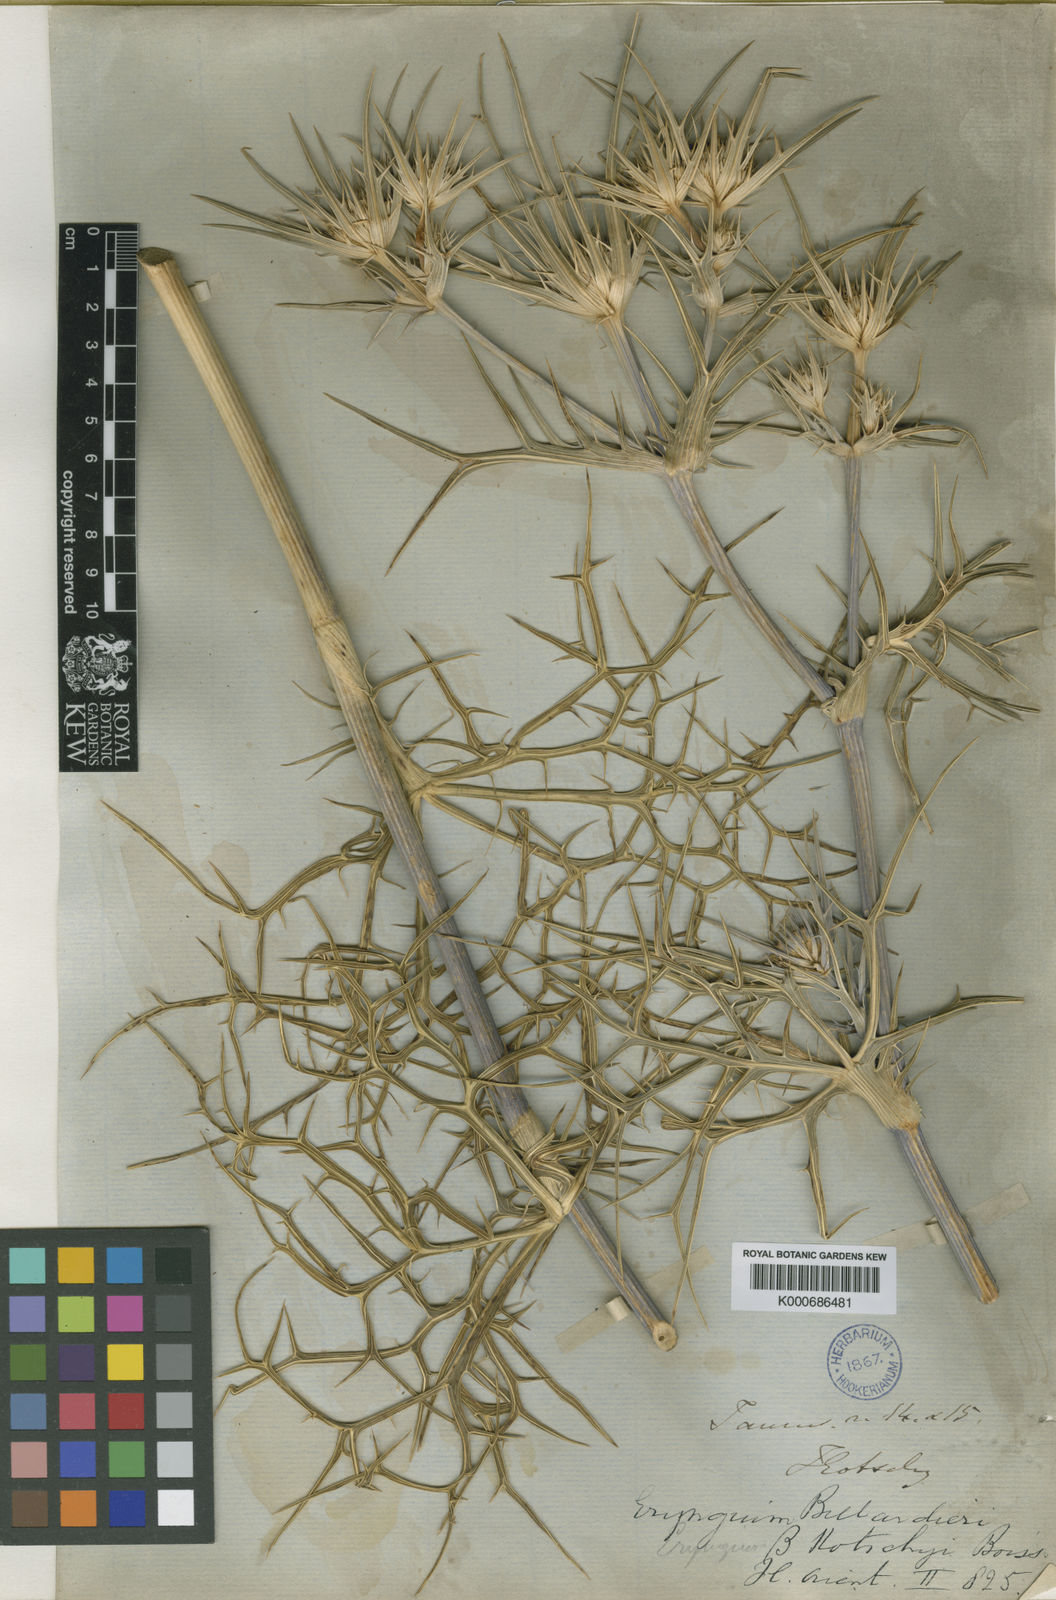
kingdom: Plantae
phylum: Tracheophyta
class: Magnoliopsida
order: Apiales
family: Apiaceae
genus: Eryngium
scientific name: Eryngium kotschyi
